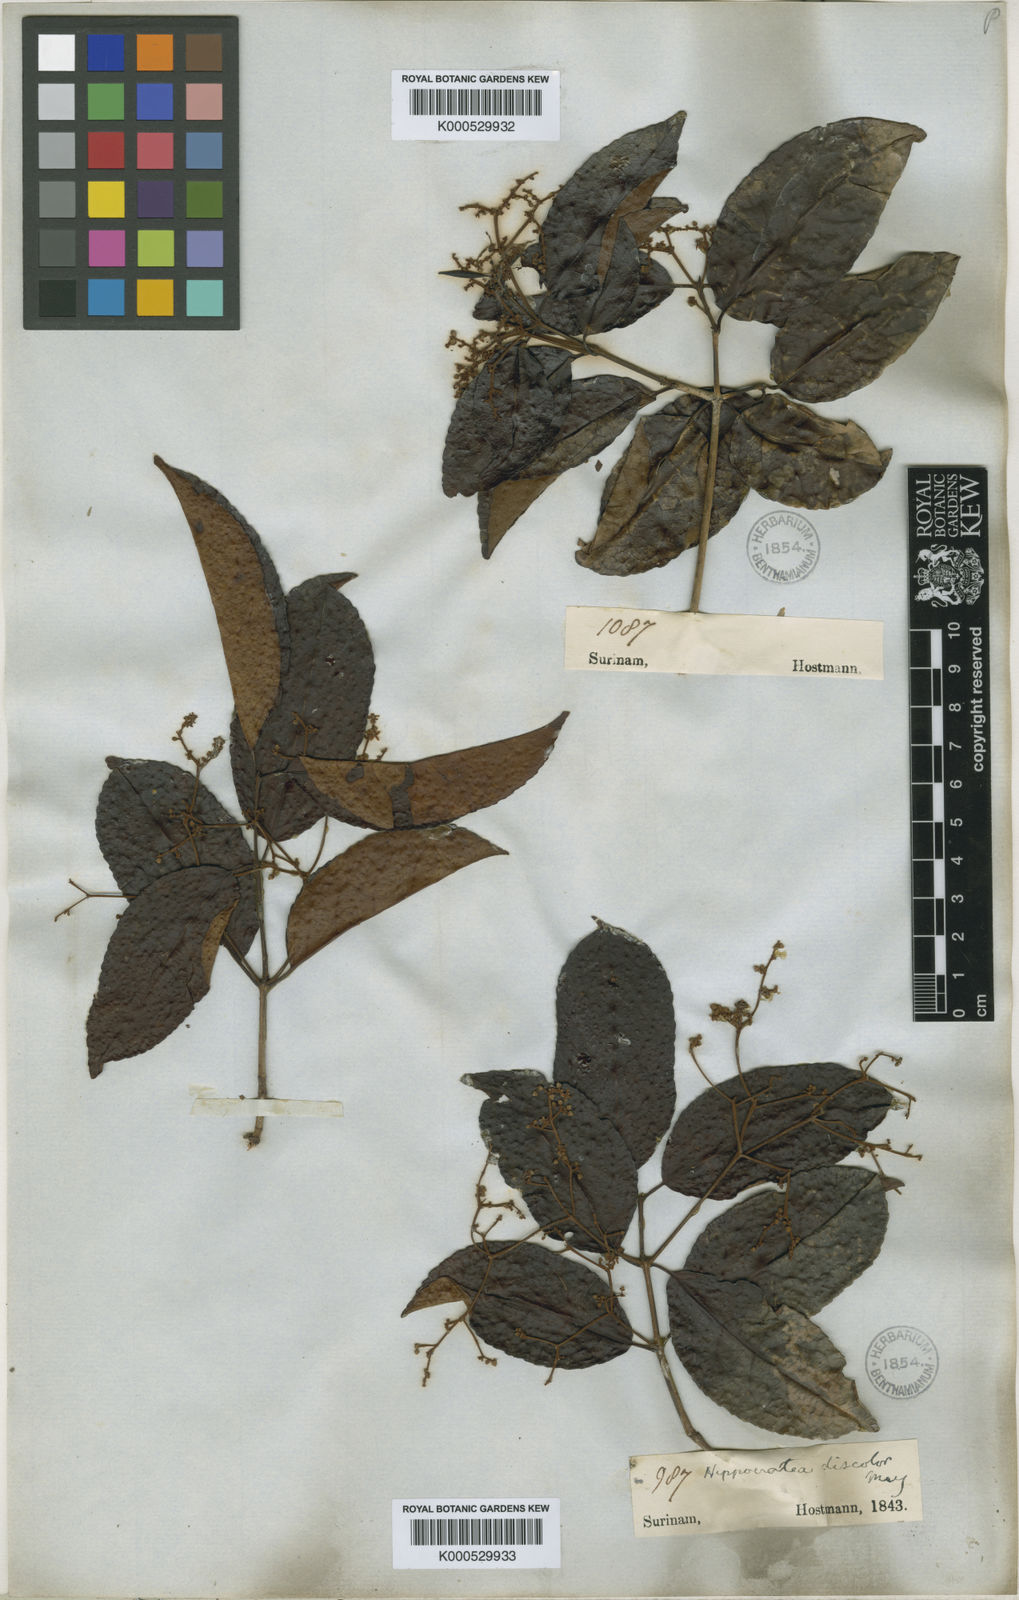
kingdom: Plantae
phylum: Tracheophyta
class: Magnoliopsida
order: Celastrales
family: Celastraceae
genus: Hippocratea
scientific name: Hippocratea volubilis
